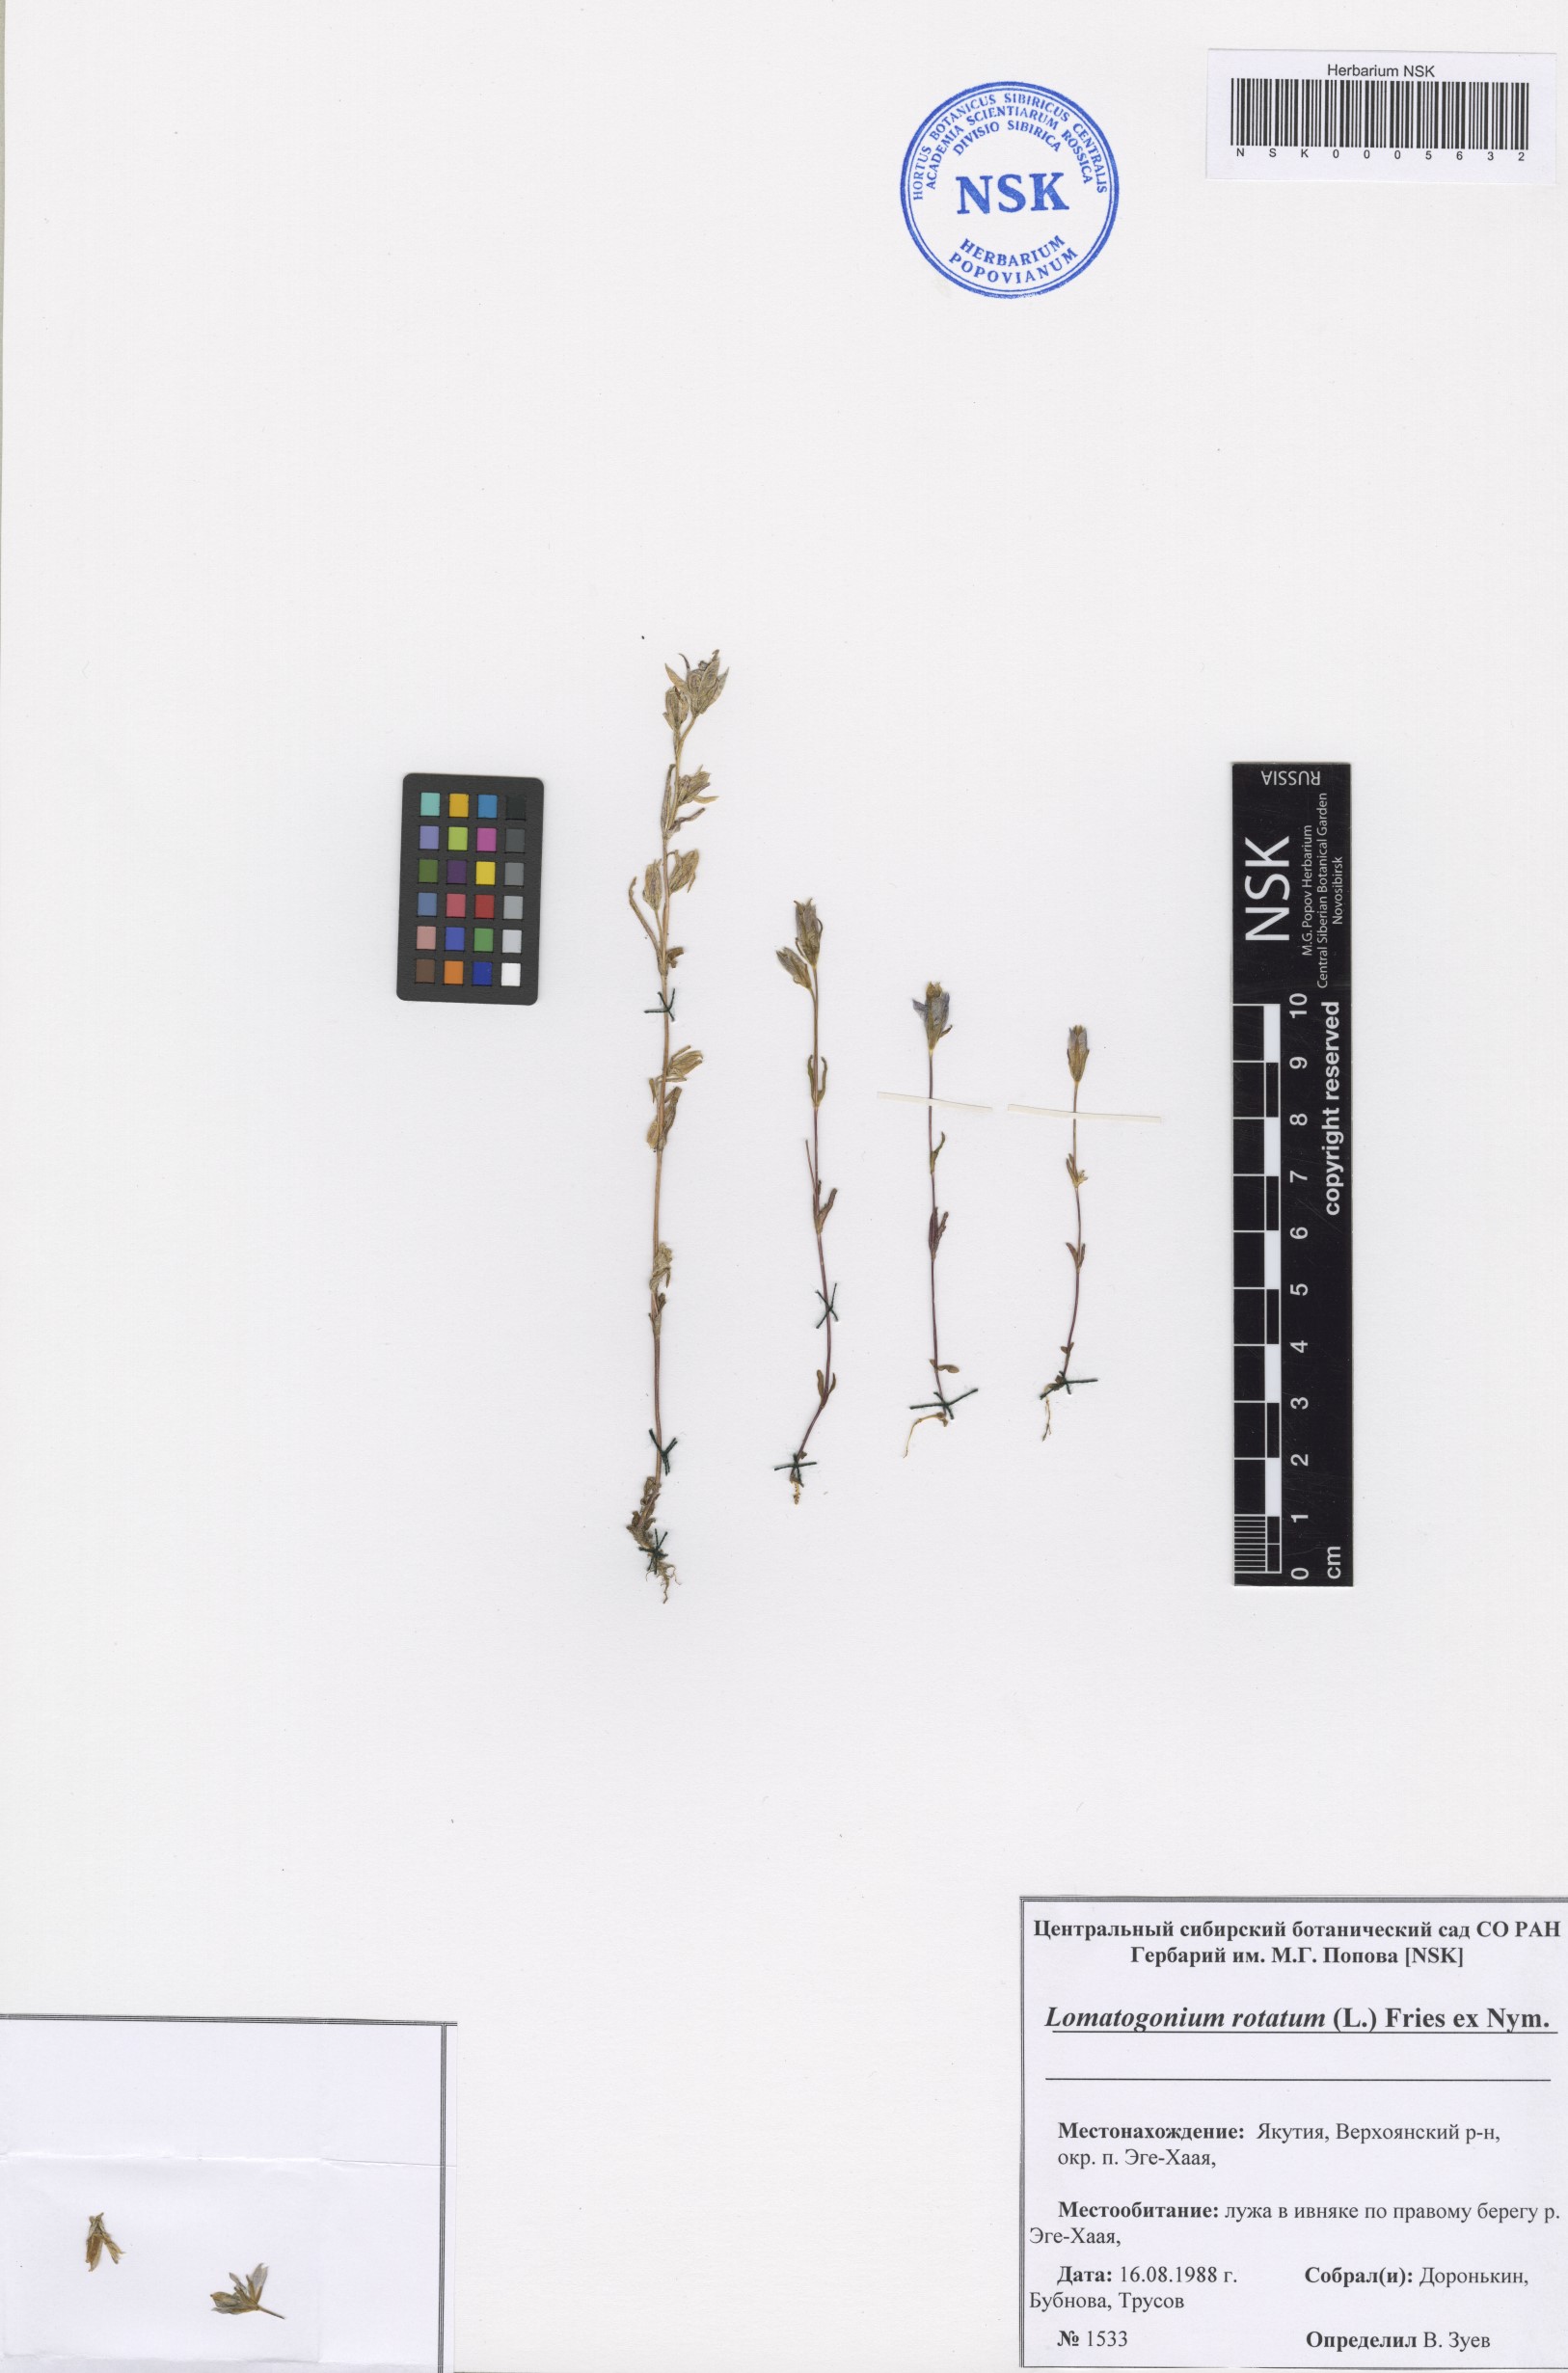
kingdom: Plantae
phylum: Tracheophyta
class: Magnoliopsida
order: Gentianales
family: Gentianaceae
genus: Lomatogonium
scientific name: Lomatogonium rotatum
